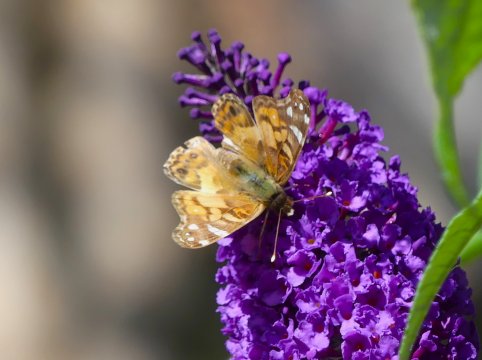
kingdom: Animalia
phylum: Arthropoda
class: Insecta
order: Lepidoptera
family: Nymphalidae
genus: Vanessa
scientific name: Vanessa virginiensis
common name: American Lady
